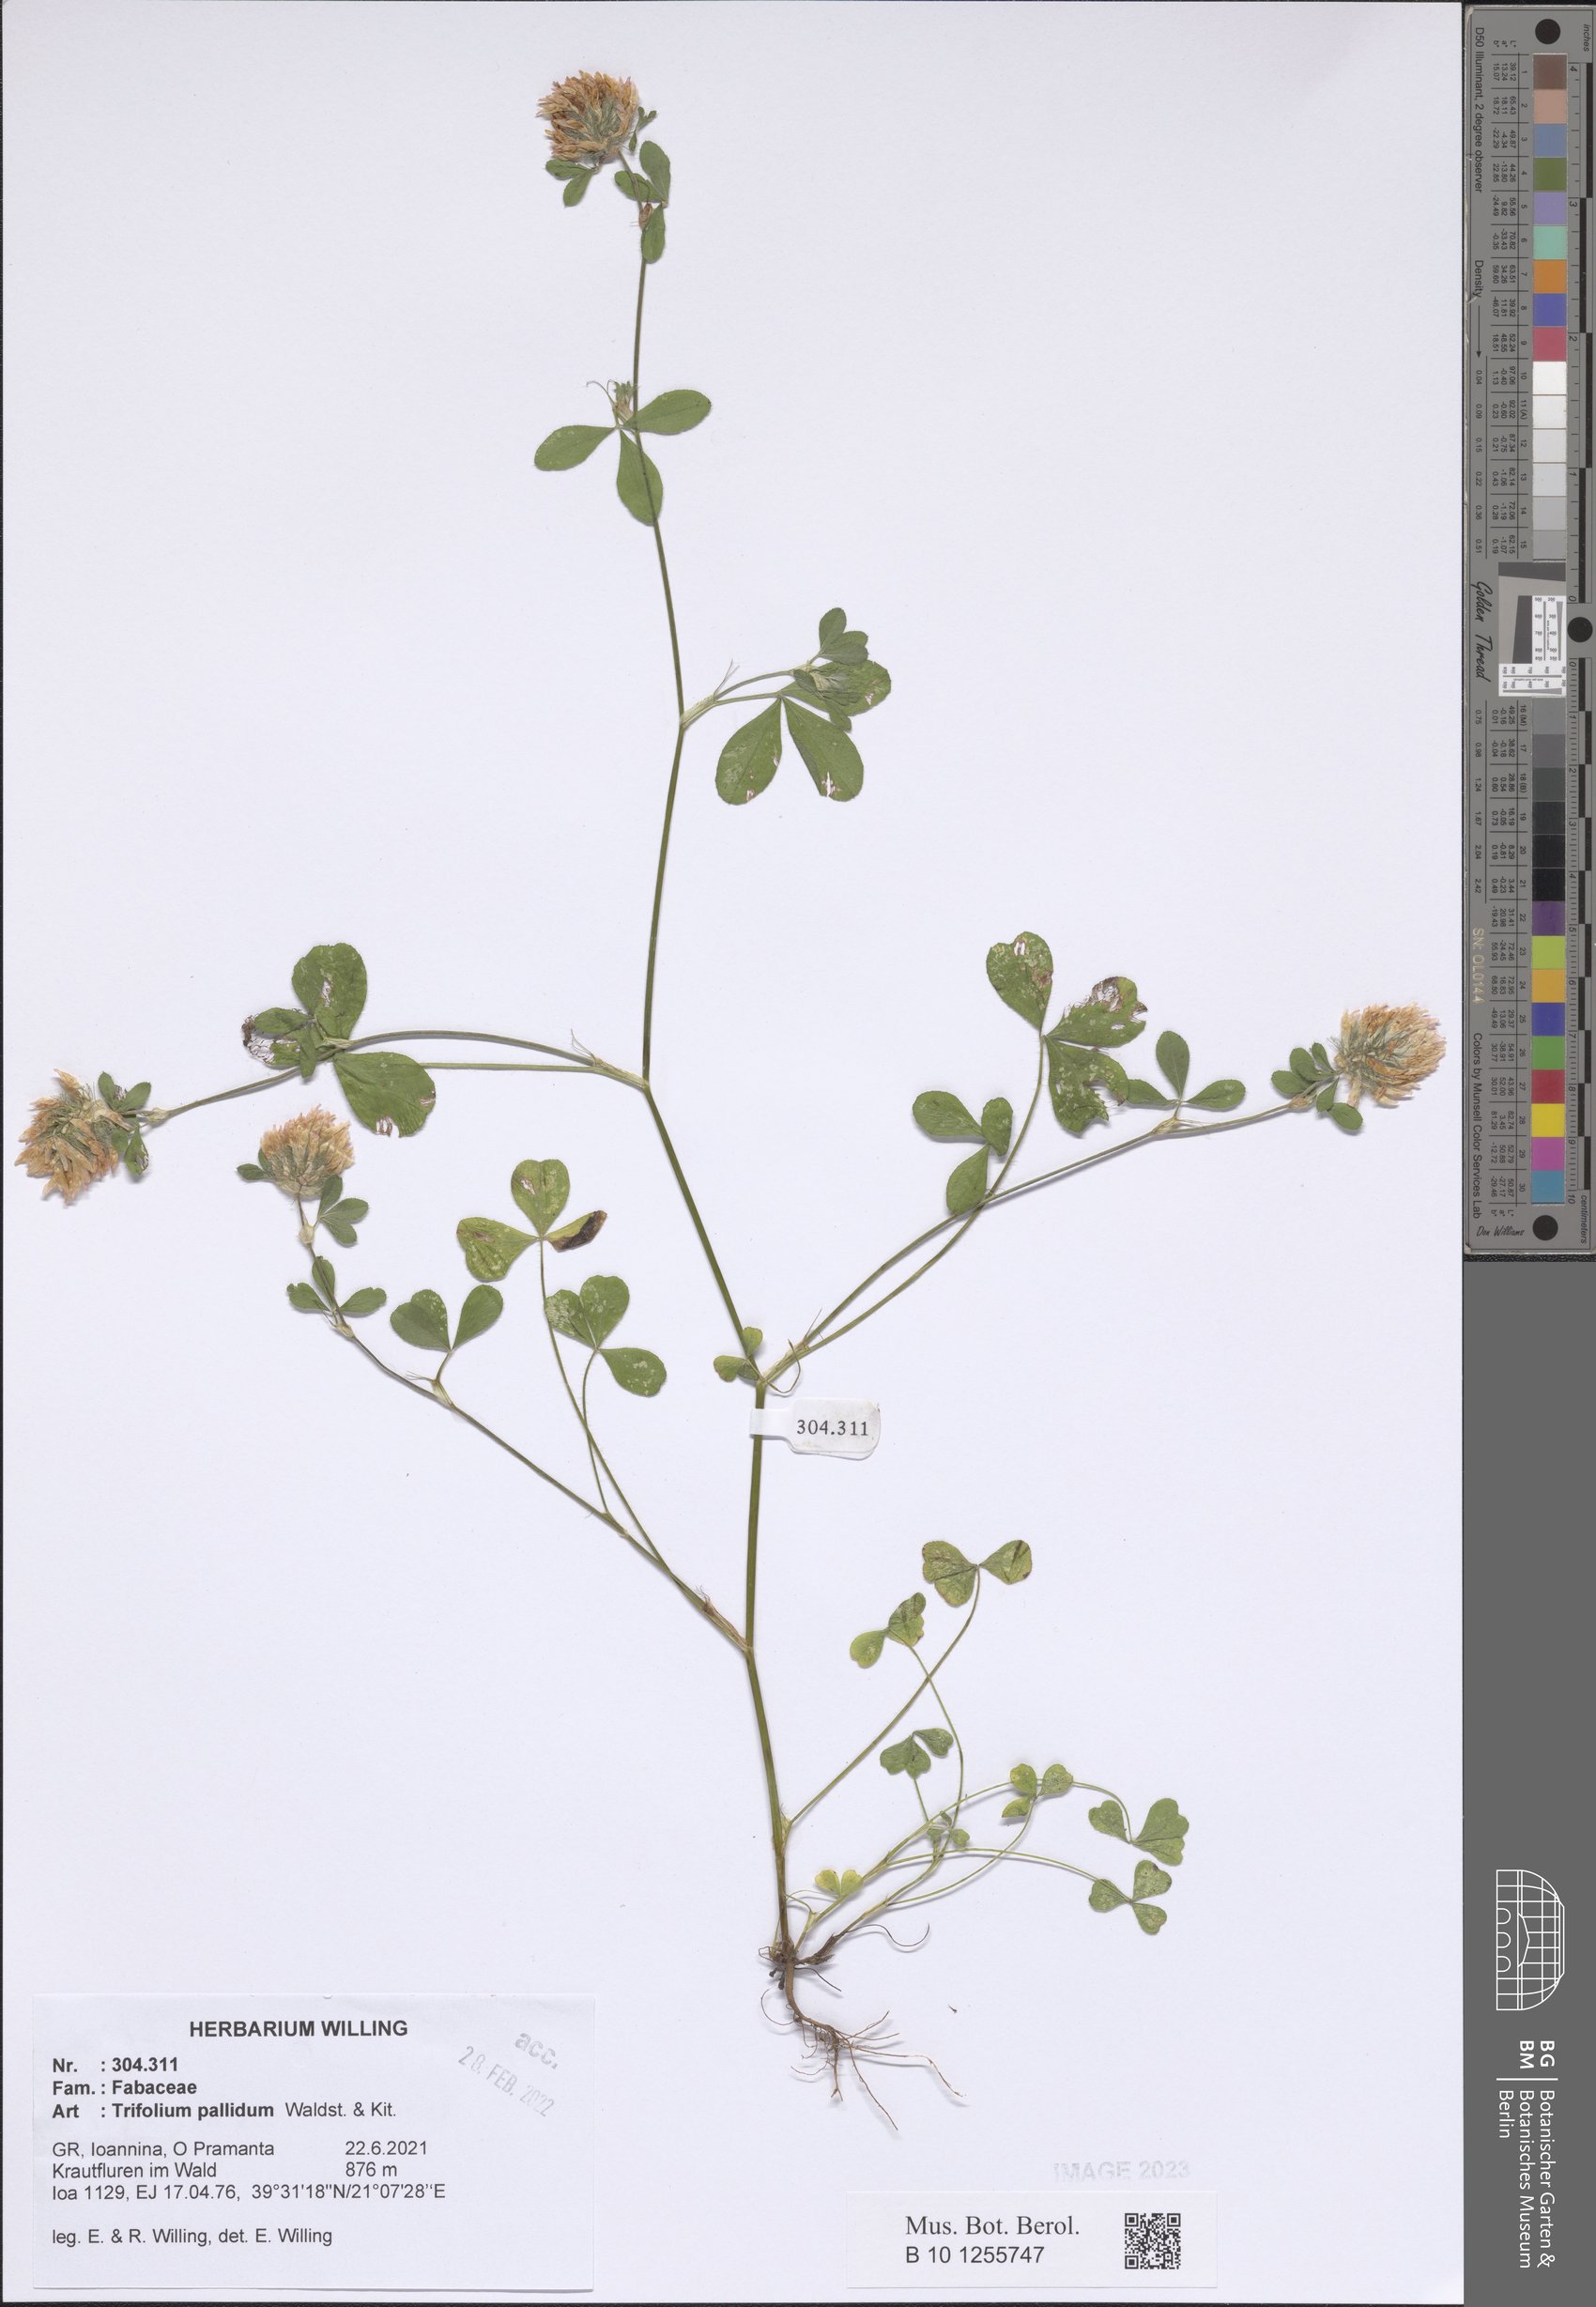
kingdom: Plantae
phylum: Tracheophyta
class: Magnoliopsida
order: Fabales
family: Fabaceae
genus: Trifolium
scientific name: Trifolium pallidum
